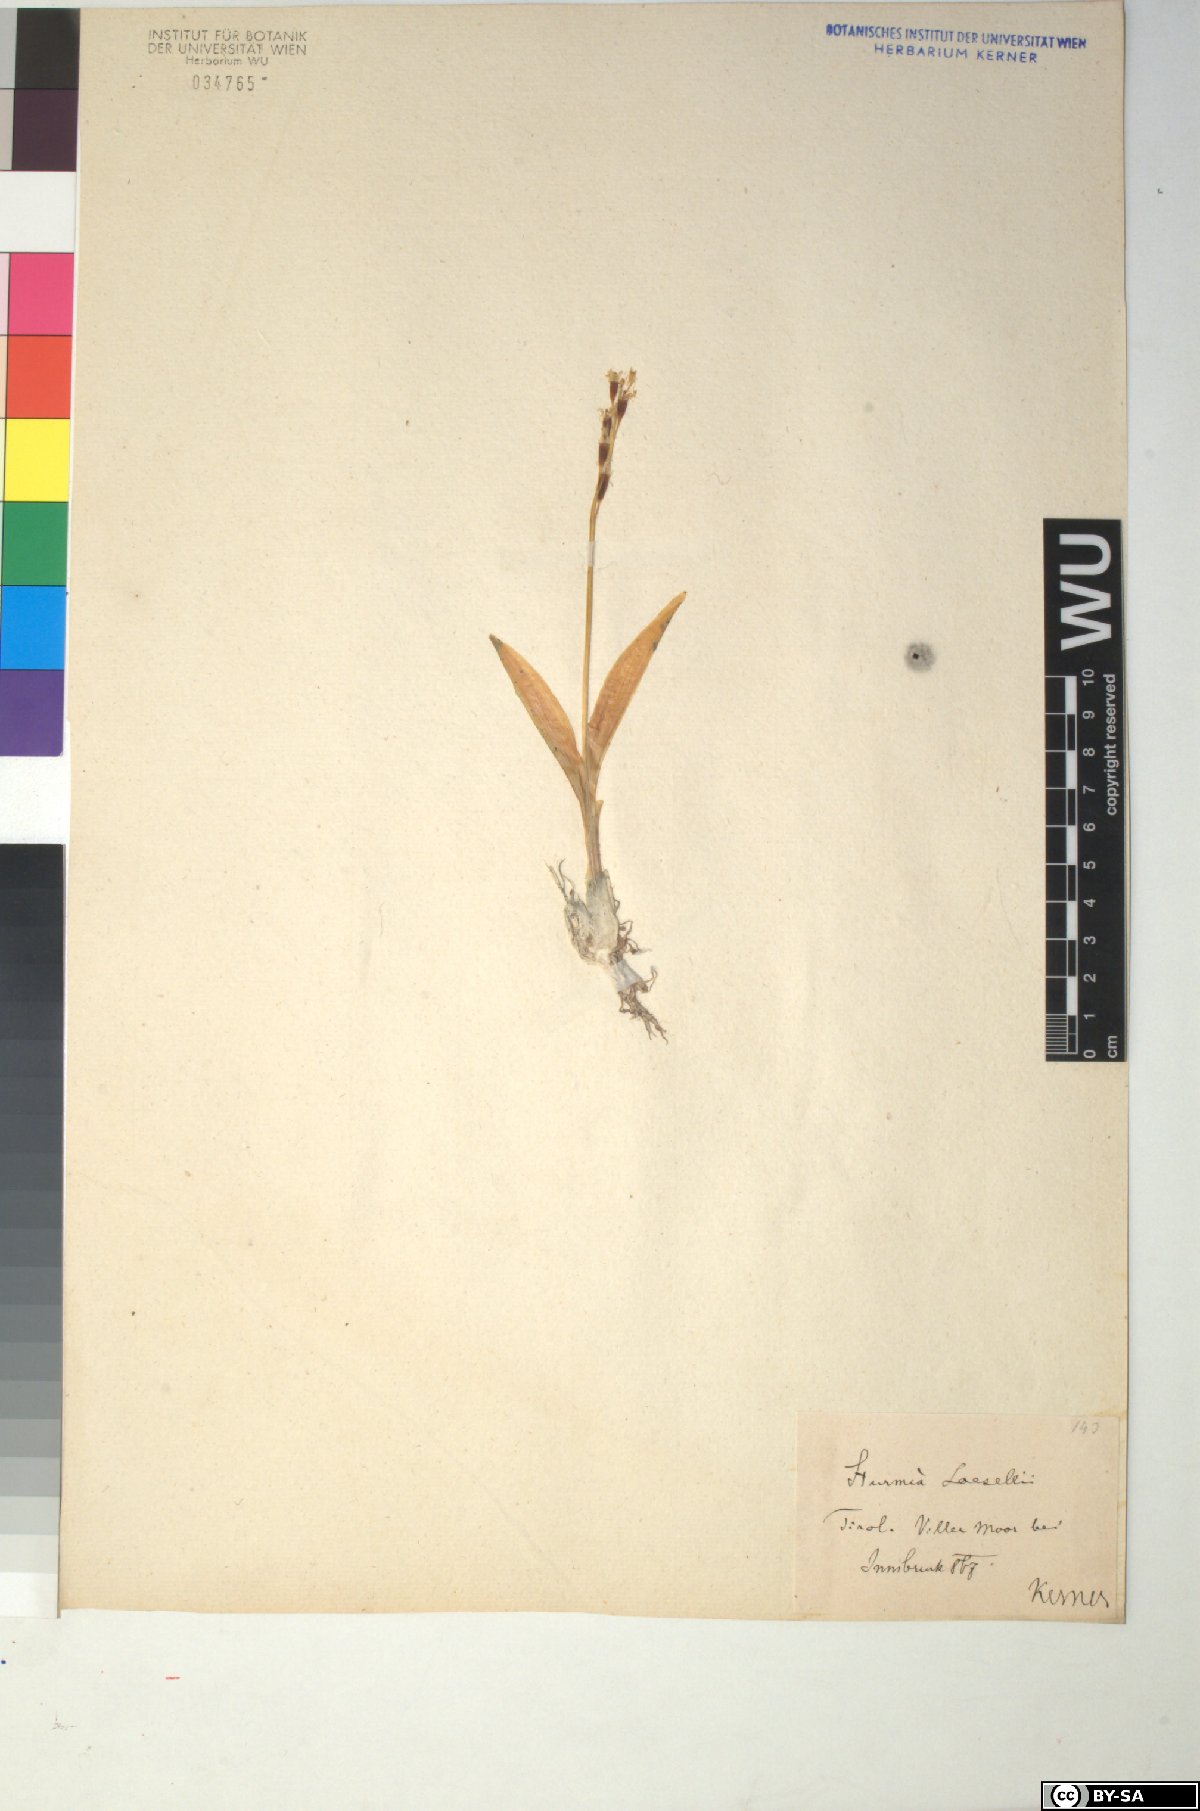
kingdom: Animalia
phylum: Arthropoda
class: Insecta
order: Coleoptera
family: Curculionidae
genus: Liparis
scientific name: Liparis loeselii
